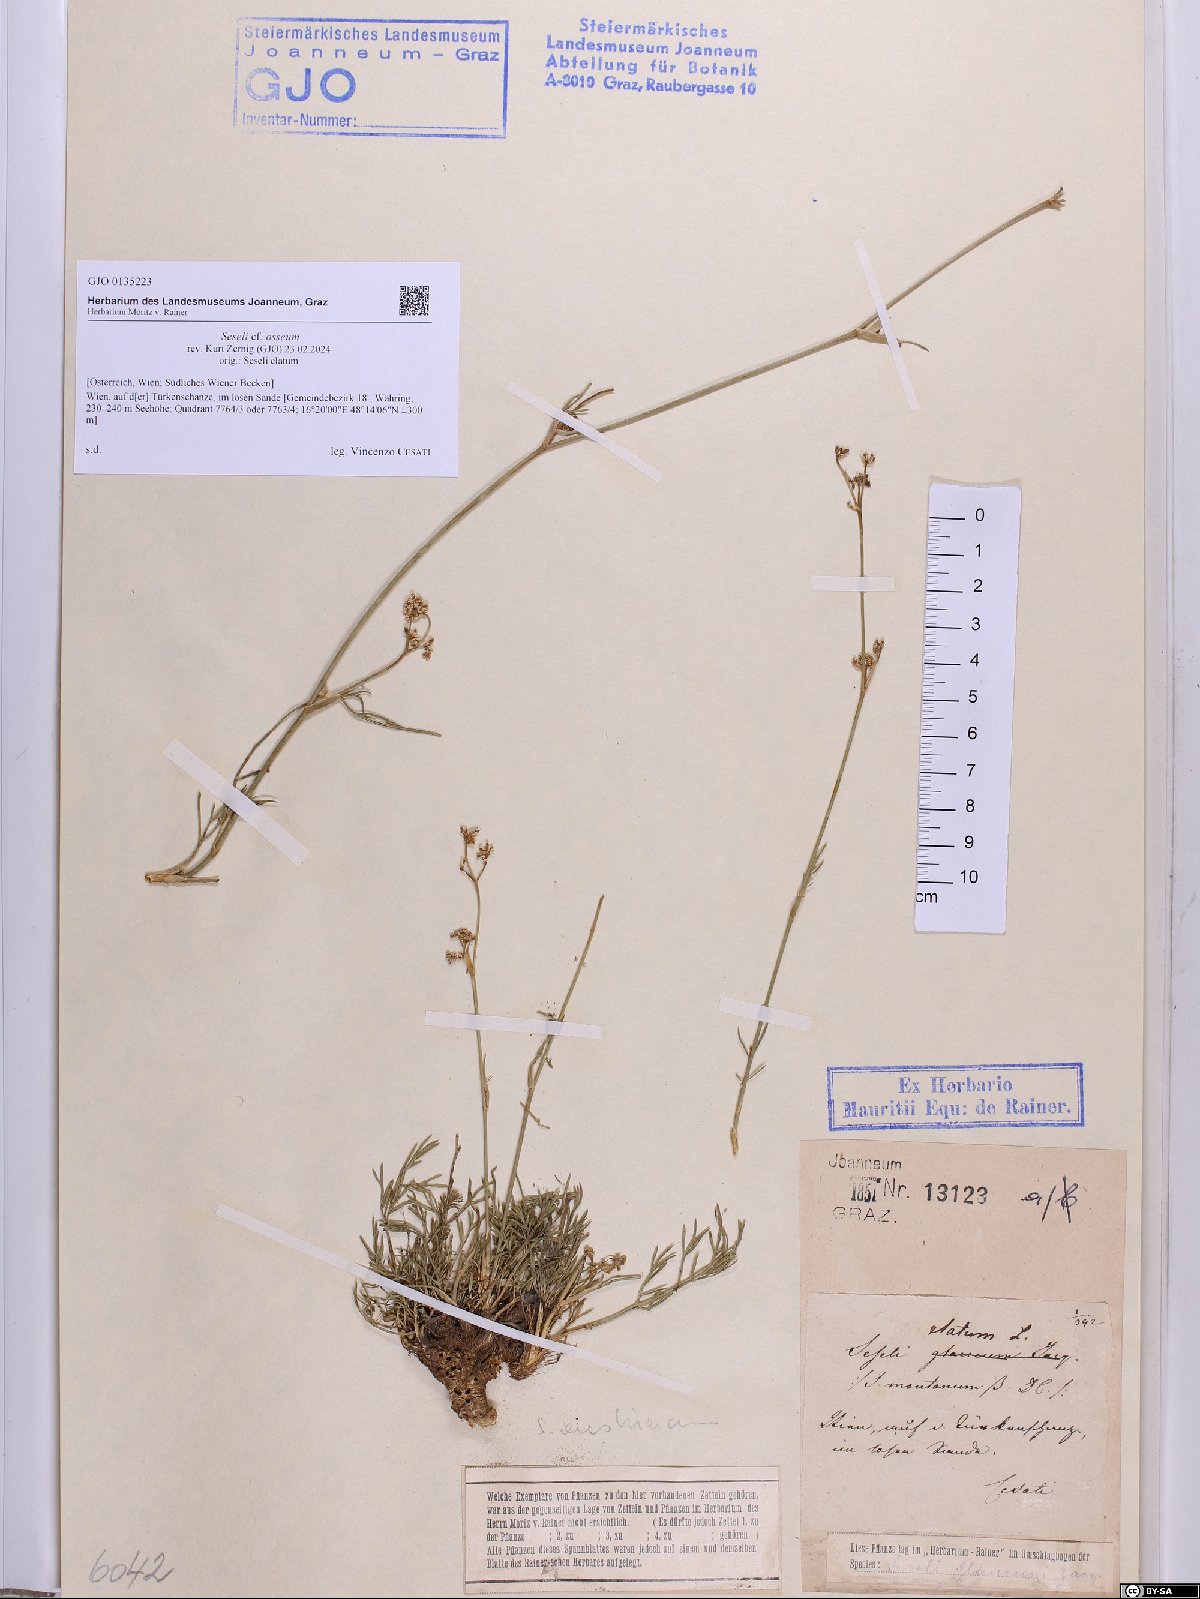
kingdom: Plantae
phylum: Tracheophyta
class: Magnoliopsida
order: Apiales
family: Apiaceae
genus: Seseli
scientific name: Seseli osseum
